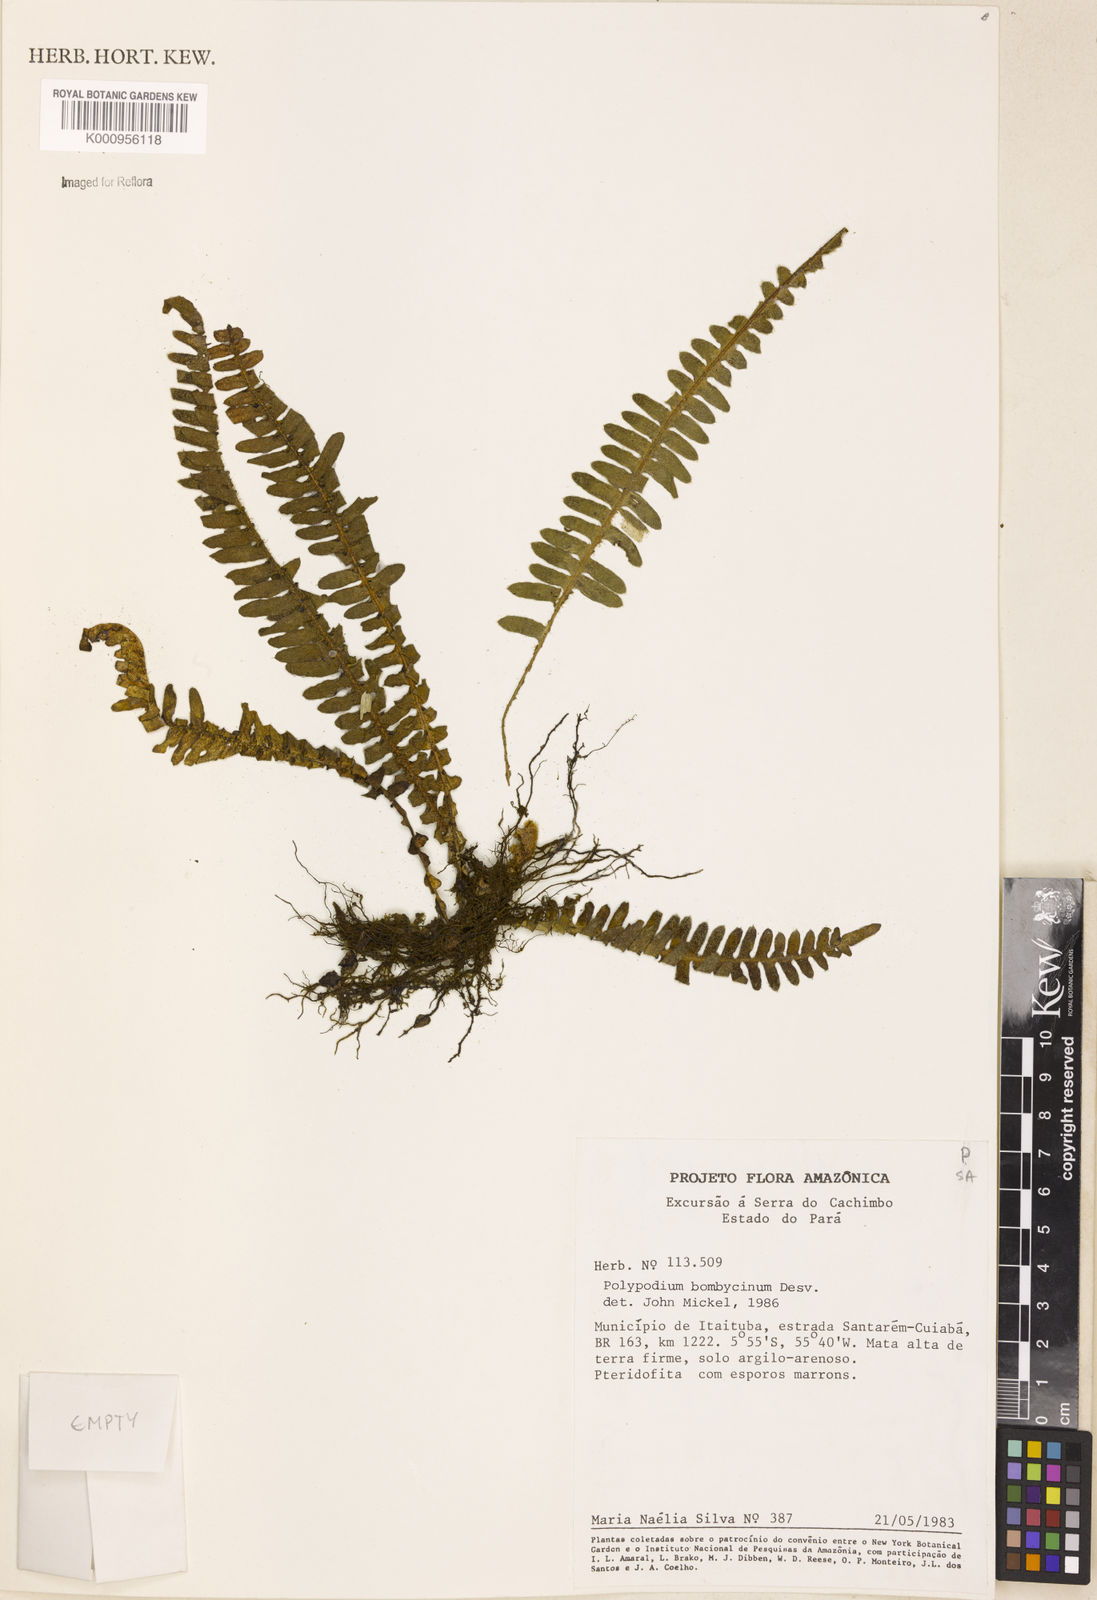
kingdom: Plantae
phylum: Tracheophyta
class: Polypodiopsida
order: Polypodiales
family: Polypodiaceae
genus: Pleopeltis
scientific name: Pleopeltis bombycina
